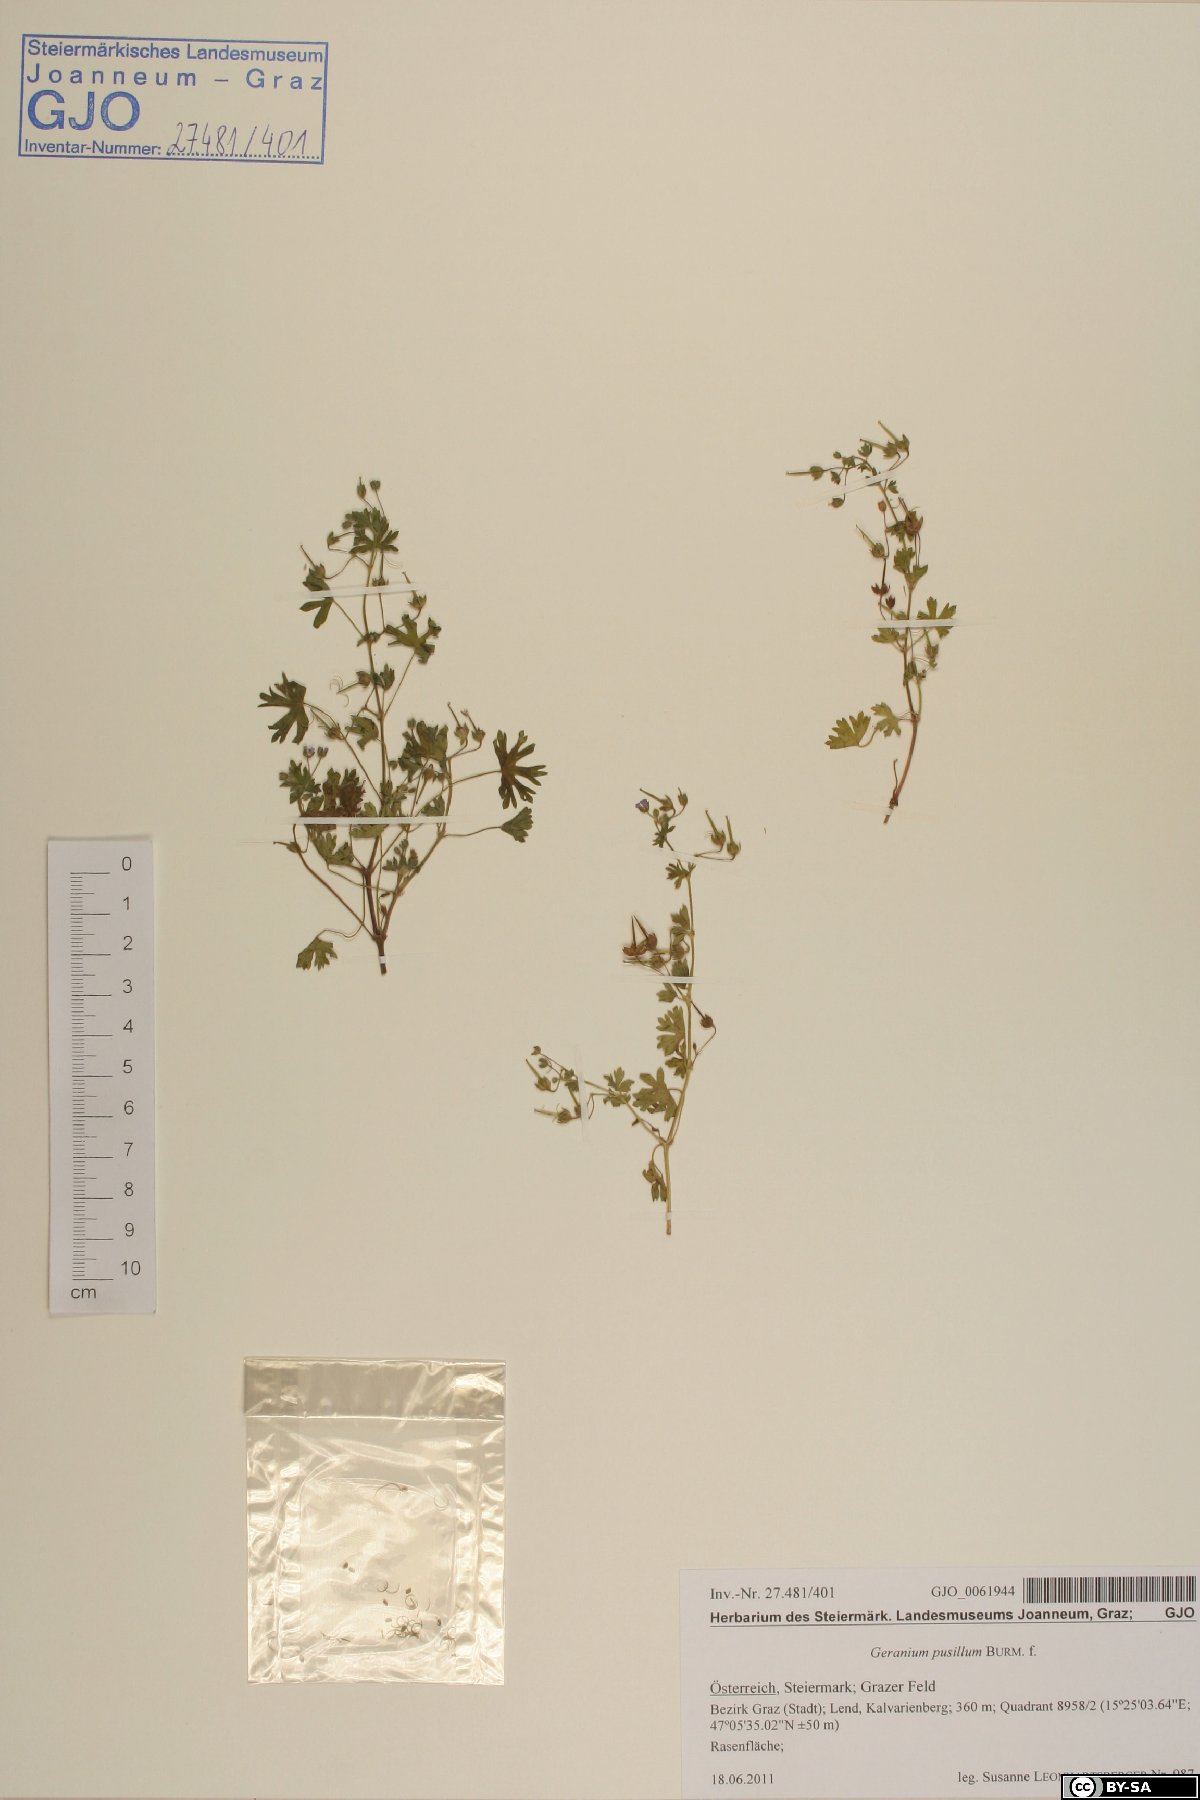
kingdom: Plantae
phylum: Tracheophyta
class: Magnoliopsida
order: Geraniales
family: Geraniaceae
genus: Geranium
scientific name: Geranium pusillum
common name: Small geranium
